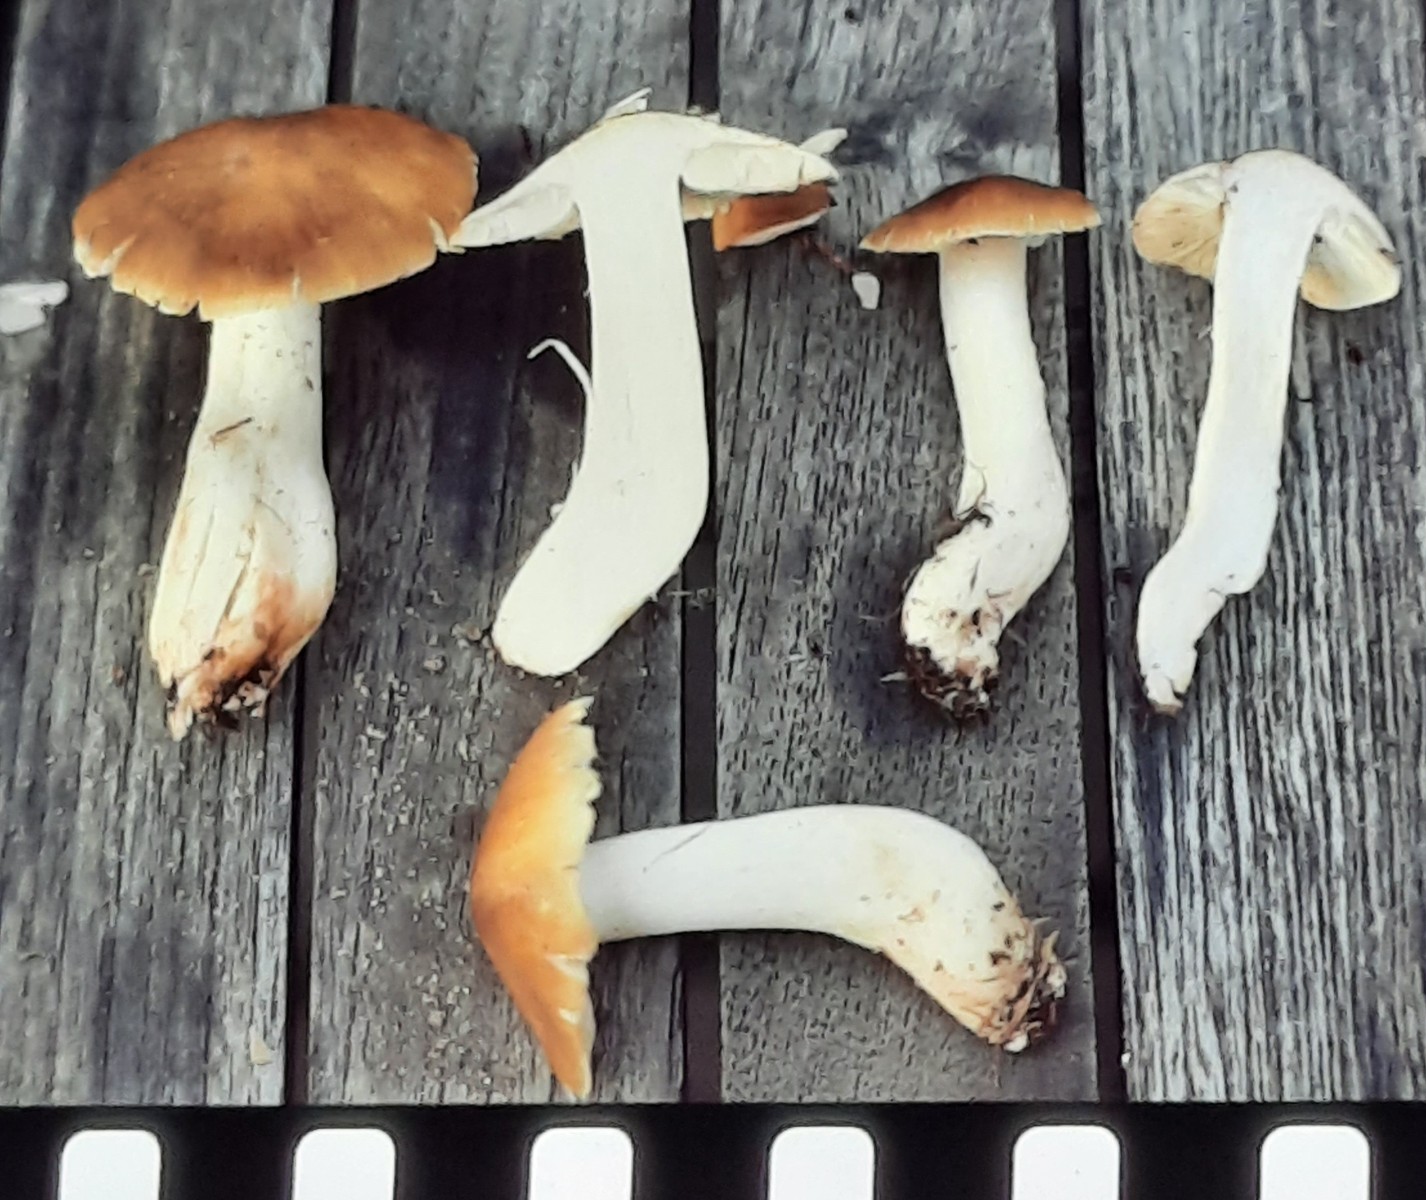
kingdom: Fungi
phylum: Basidiomycota
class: Agaricomycetes
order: Agaricales
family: Tricholomataceae
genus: Tricholoma
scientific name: Tricholoma arvernense
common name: kantet ridderhat
